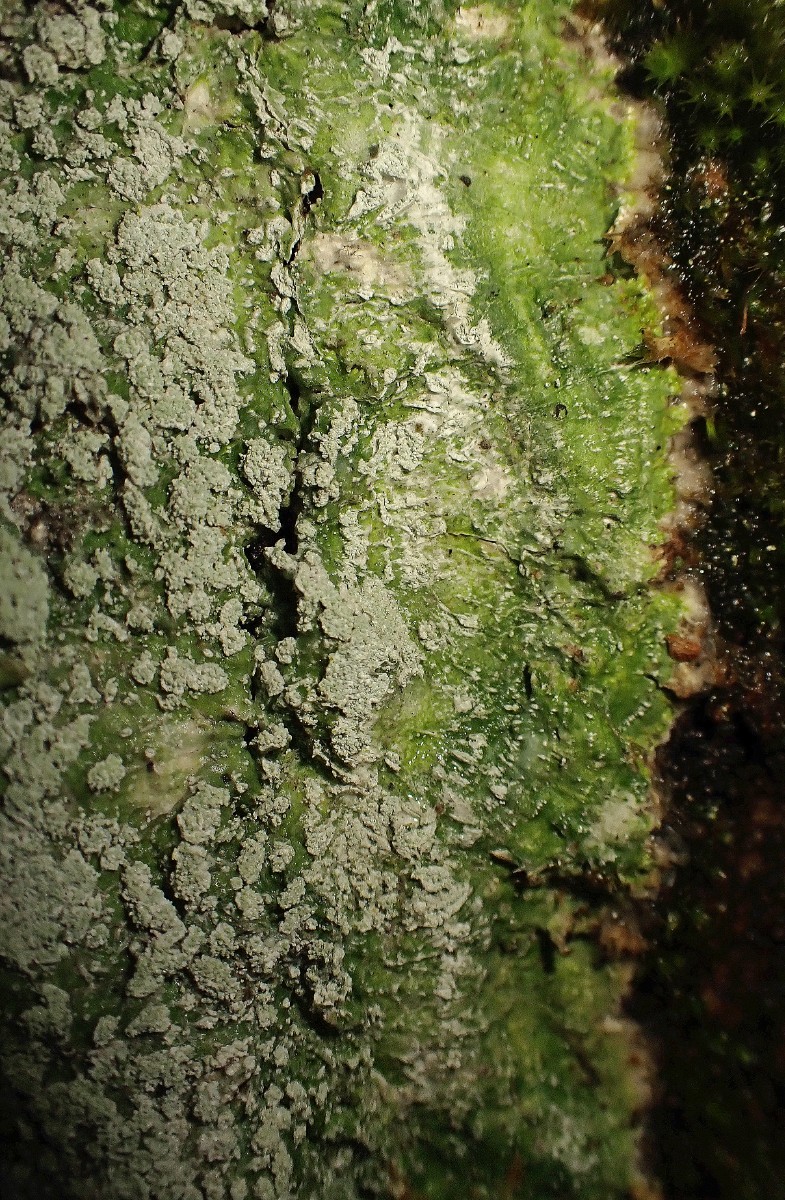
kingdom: Fungi
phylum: Ascomycota
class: Lecanoromycetes
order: Pertusariales
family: Pertusariaceae
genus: Lepra
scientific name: Lepra amara
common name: bitter prikvortelav
